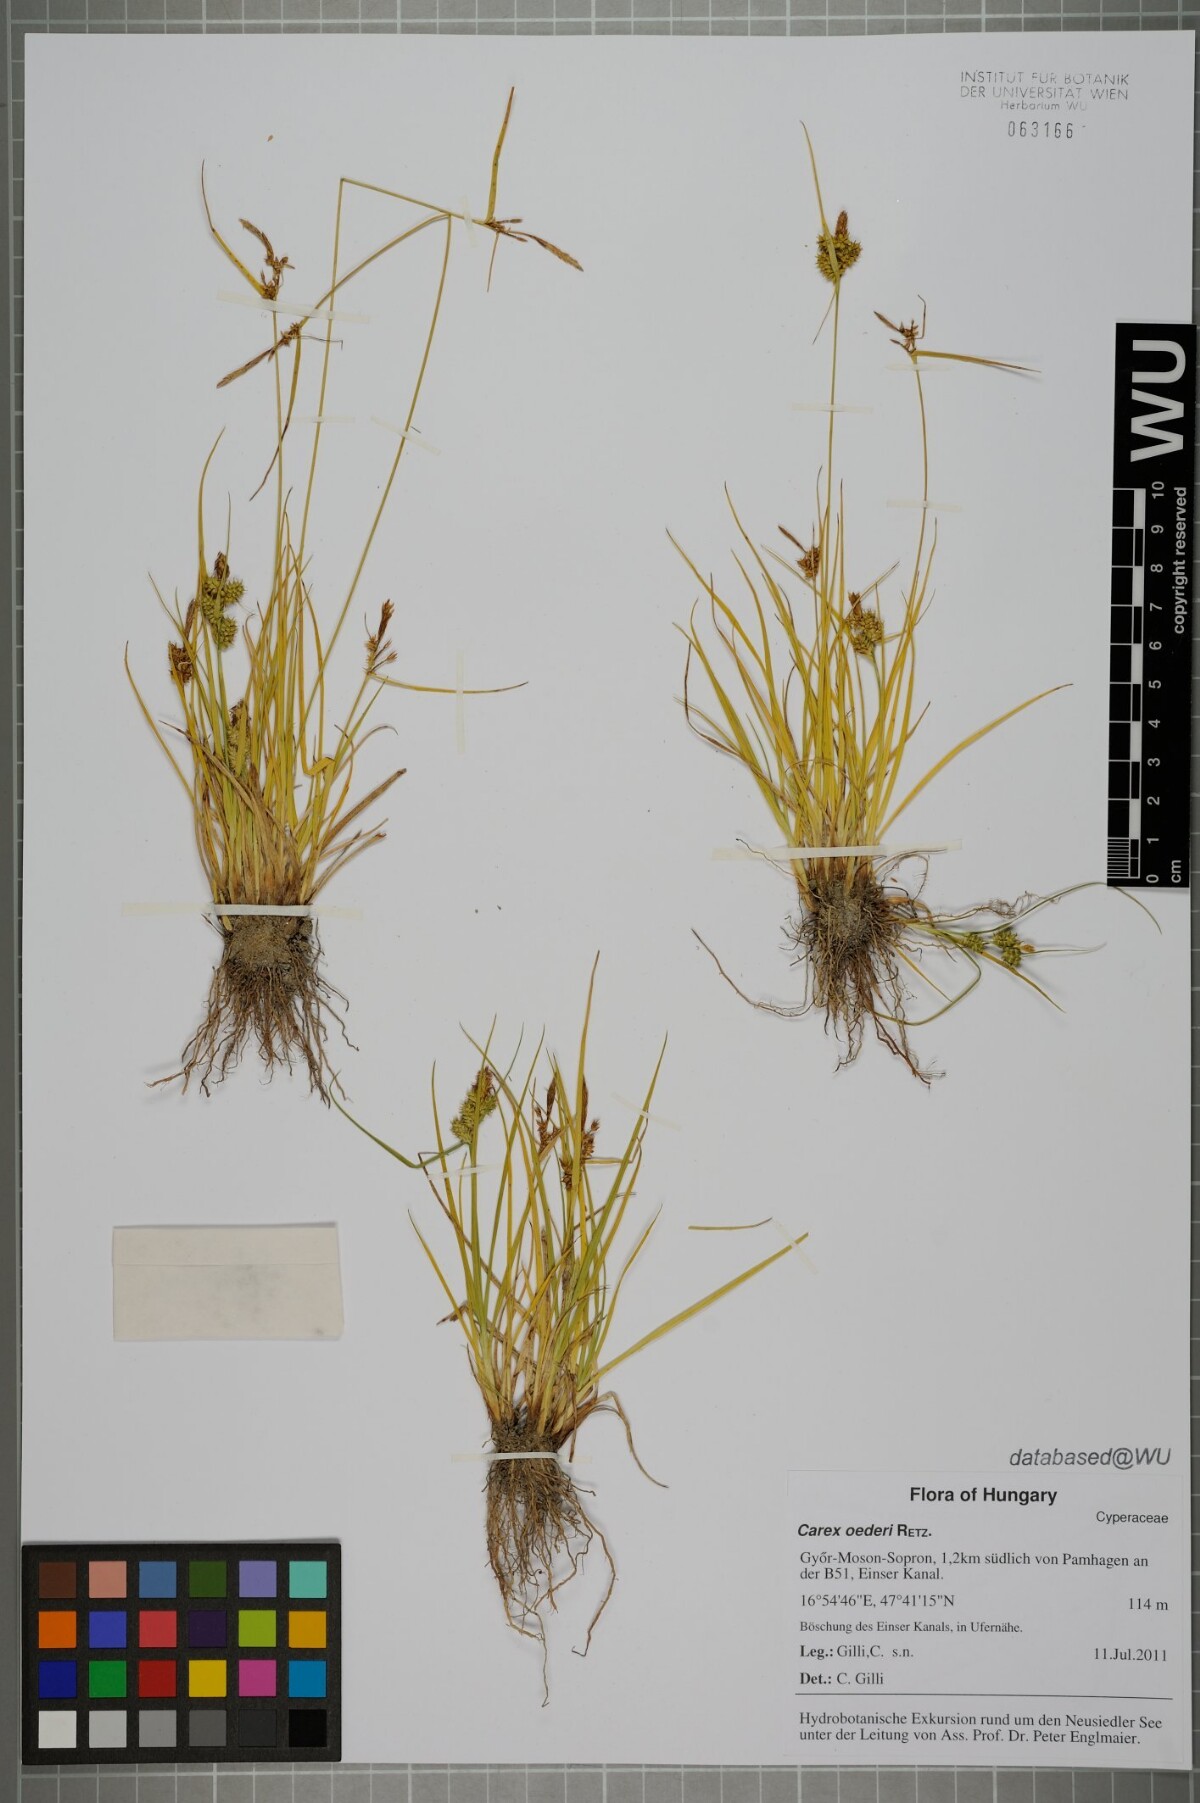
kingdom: Plantae
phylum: Tracheophyta
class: Liliopsida
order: Poales
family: Cyperaceae
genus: Carex
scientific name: Carex oederi
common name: Common & small-fruited yellow-sedge
